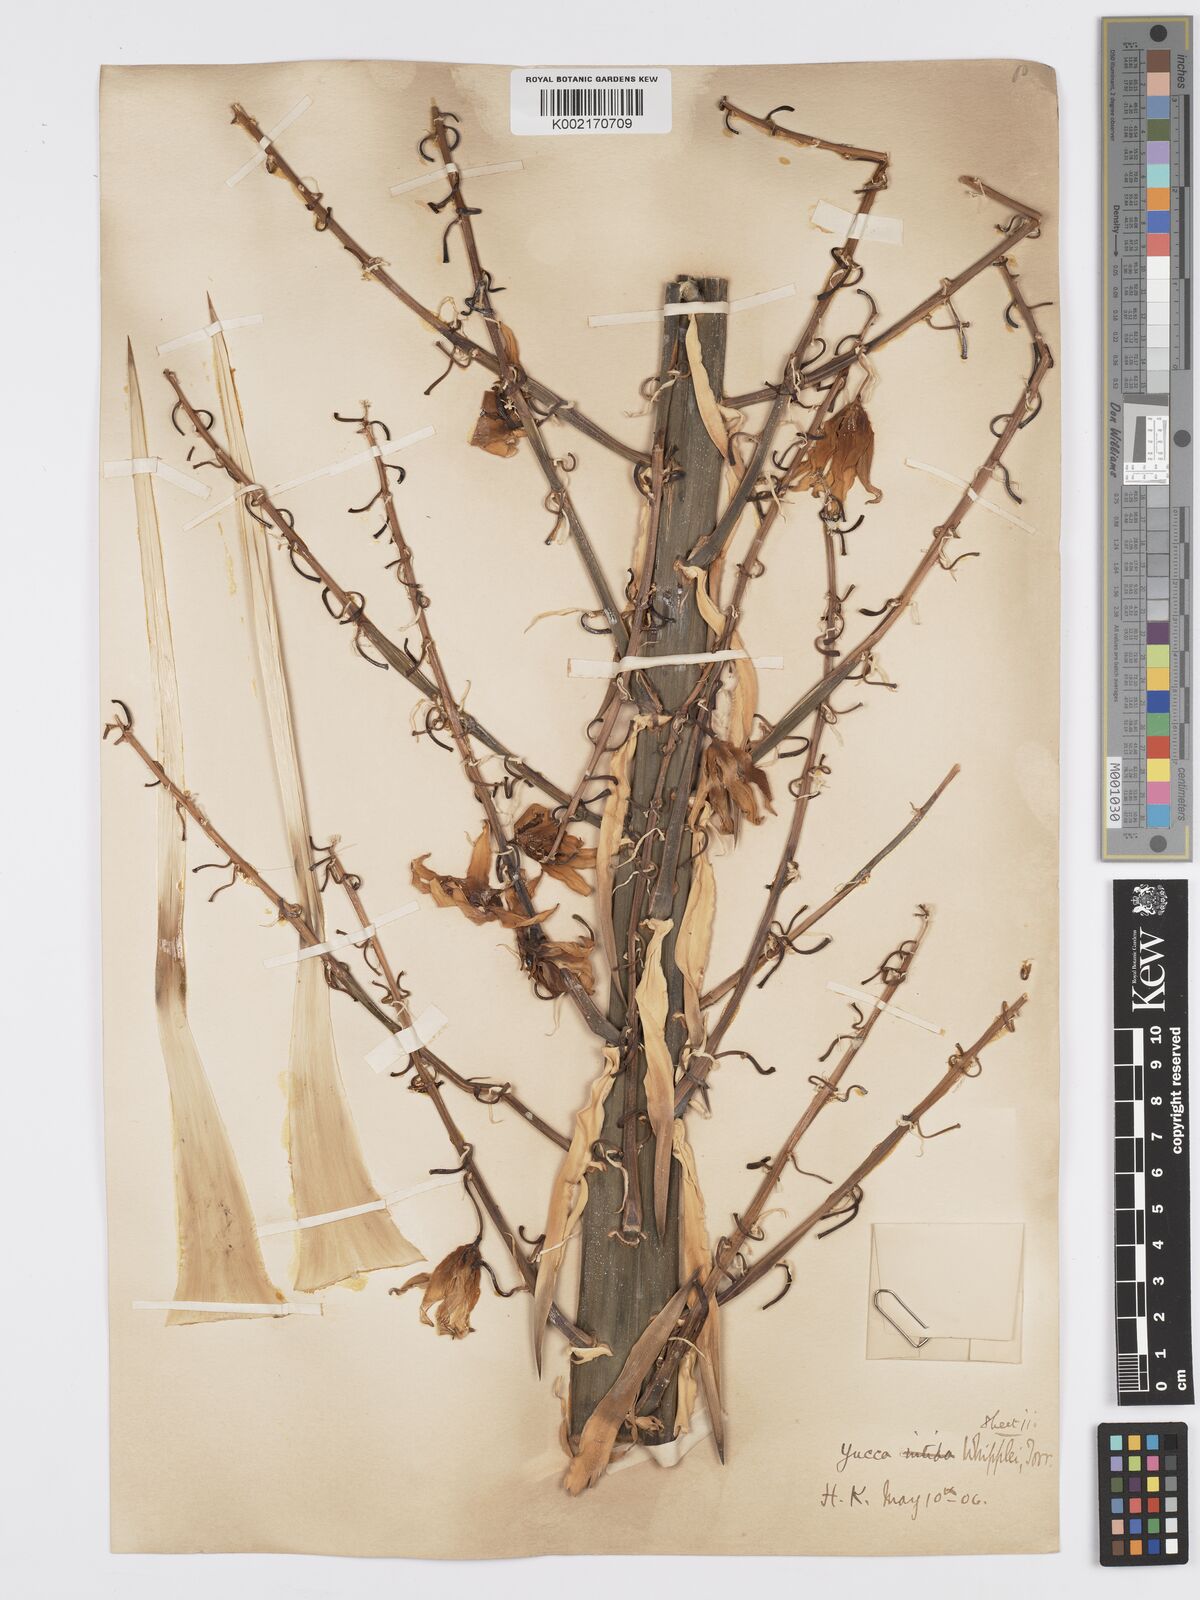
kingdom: Plantae
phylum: Tracheophyta
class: Liliopsida
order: Asparagales
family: Asparagaceae
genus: Hesperoyucca
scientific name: Hesperoyucca whipplei
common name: Our lord's-candle
